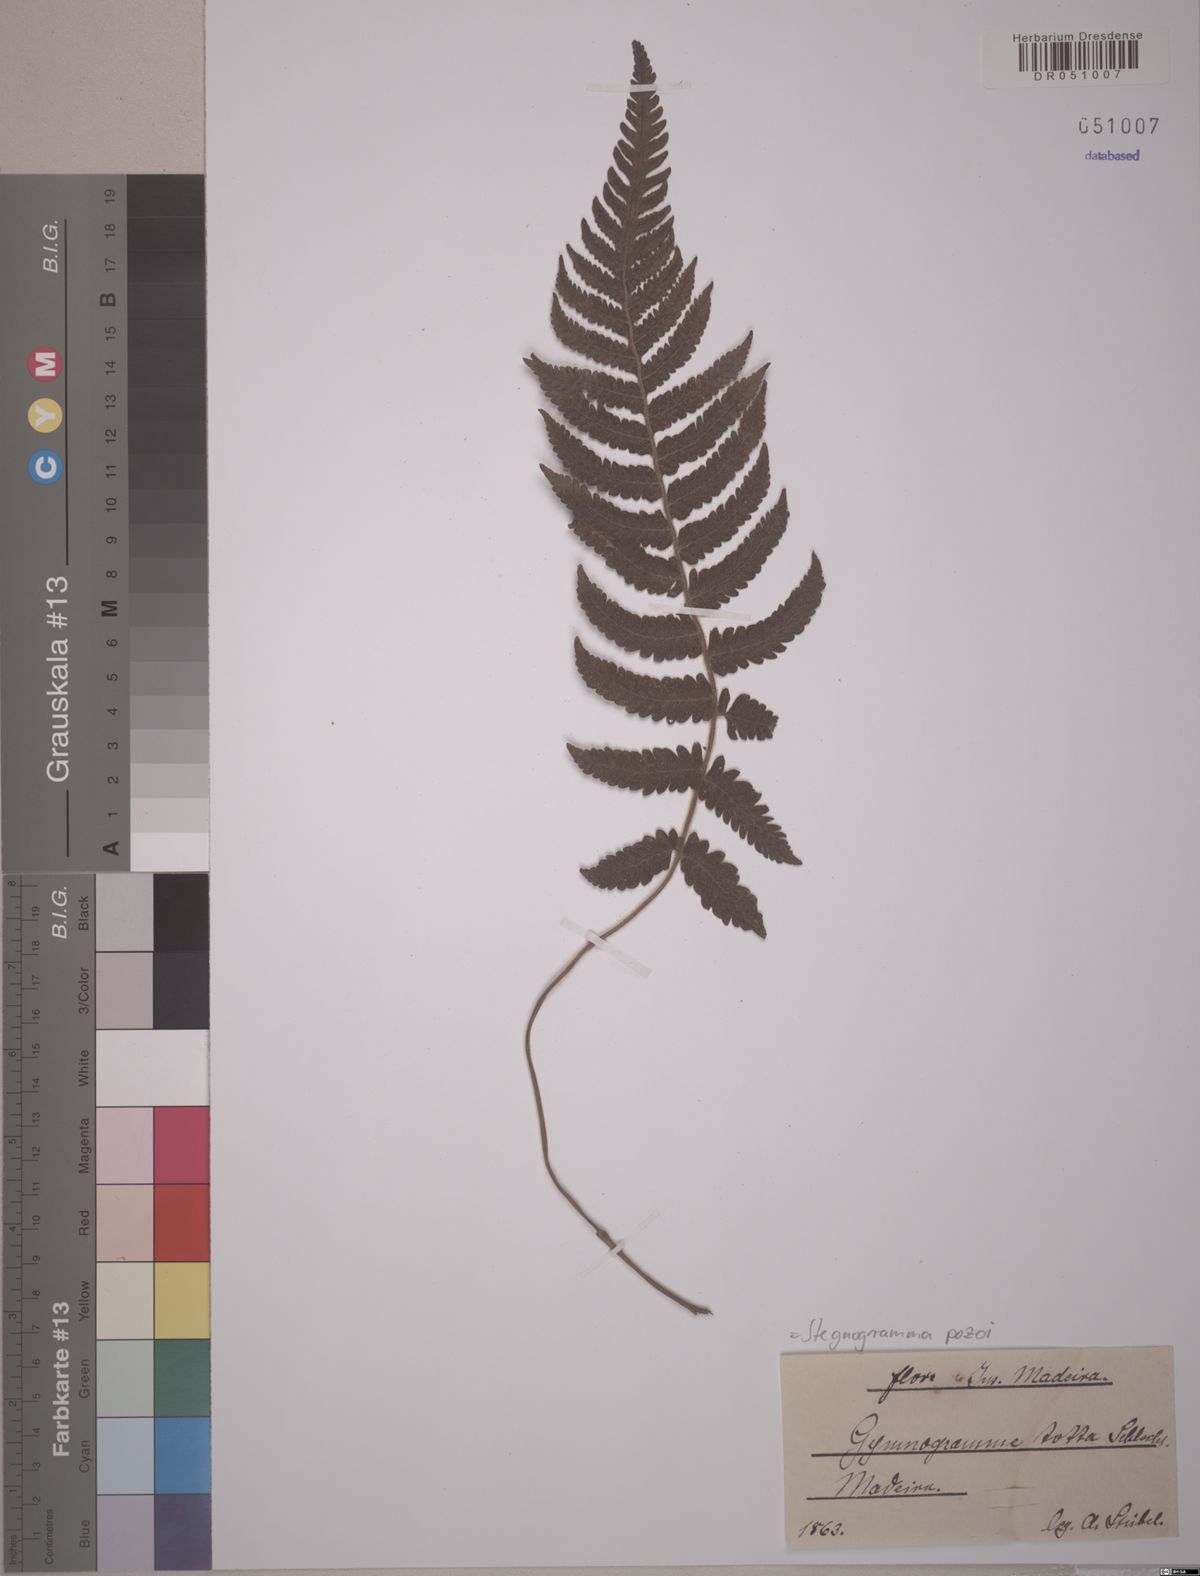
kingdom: Plantae
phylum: Tracheophyta
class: Polypodiopsida
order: Polypodiales
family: Thelypteridaceae
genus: Leptogramma
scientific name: Leptogramma pozoi
